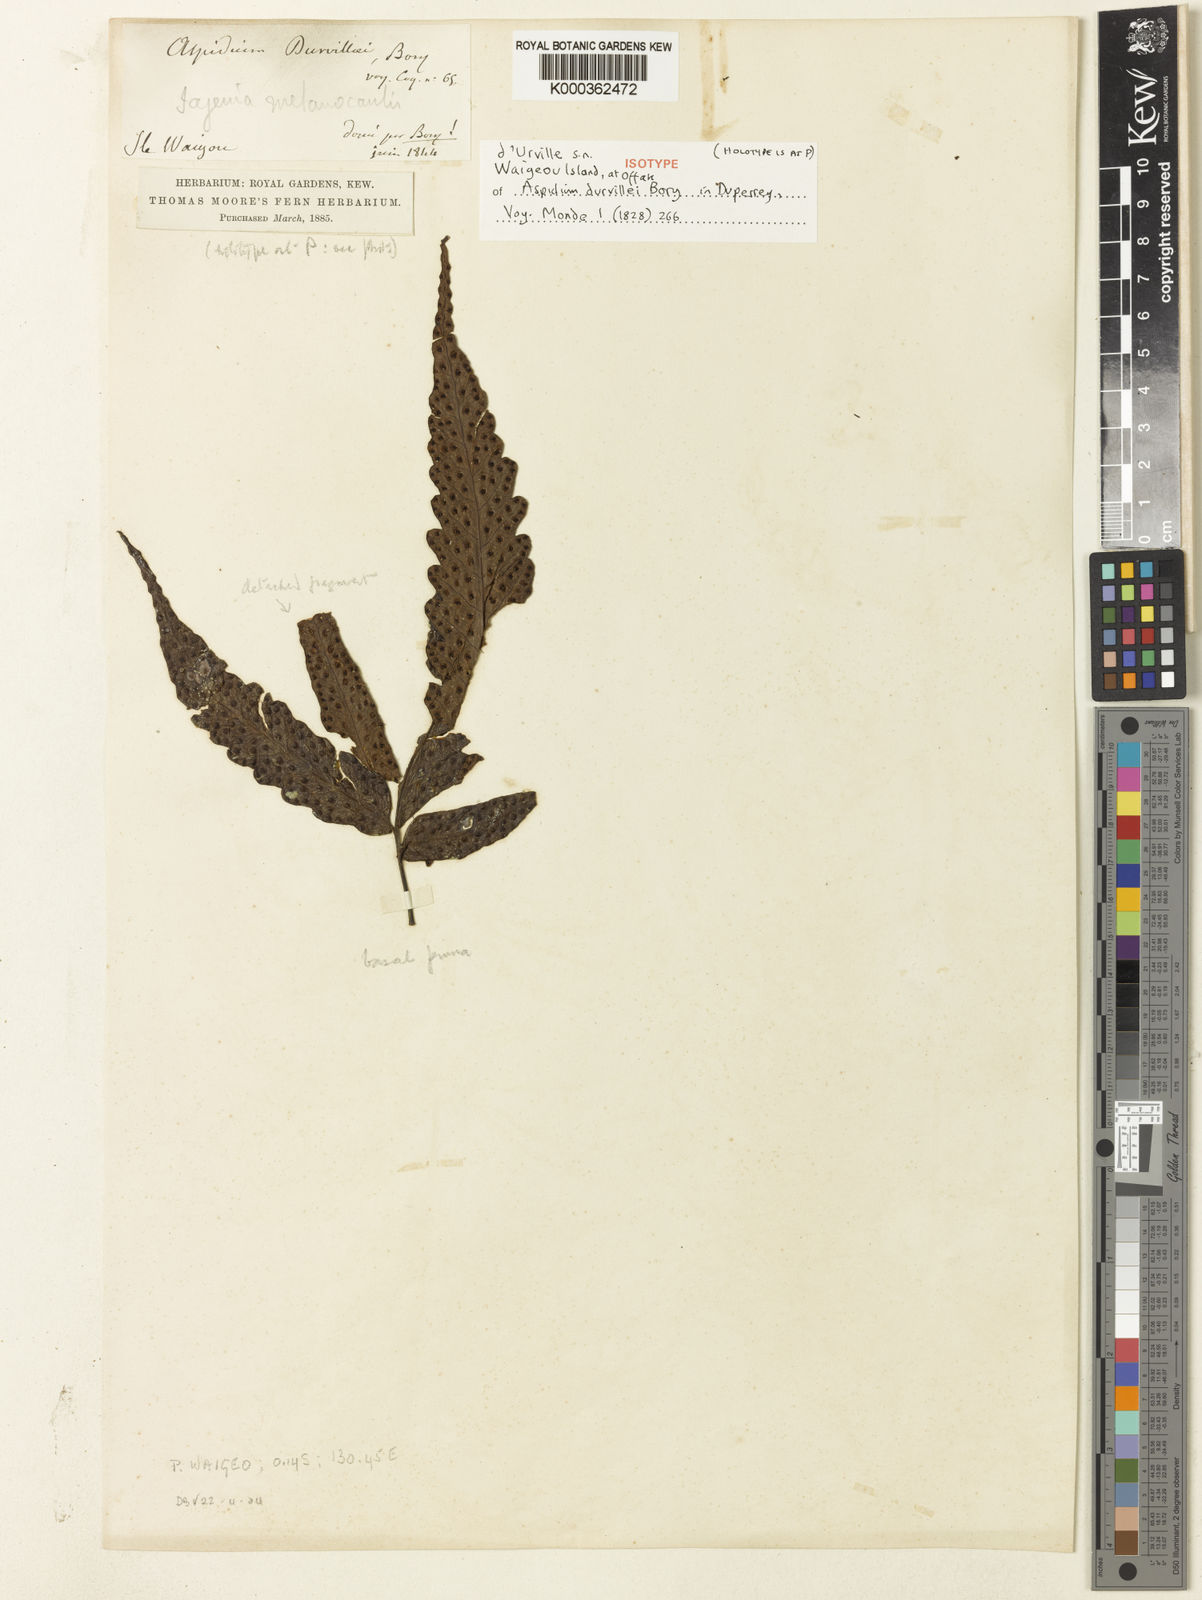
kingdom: Plantae
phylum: Tracheophyta
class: Polypodiopsida
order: Polypodiales
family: Tectariaceae
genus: Tectaria
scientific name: Tectaria durvillei
